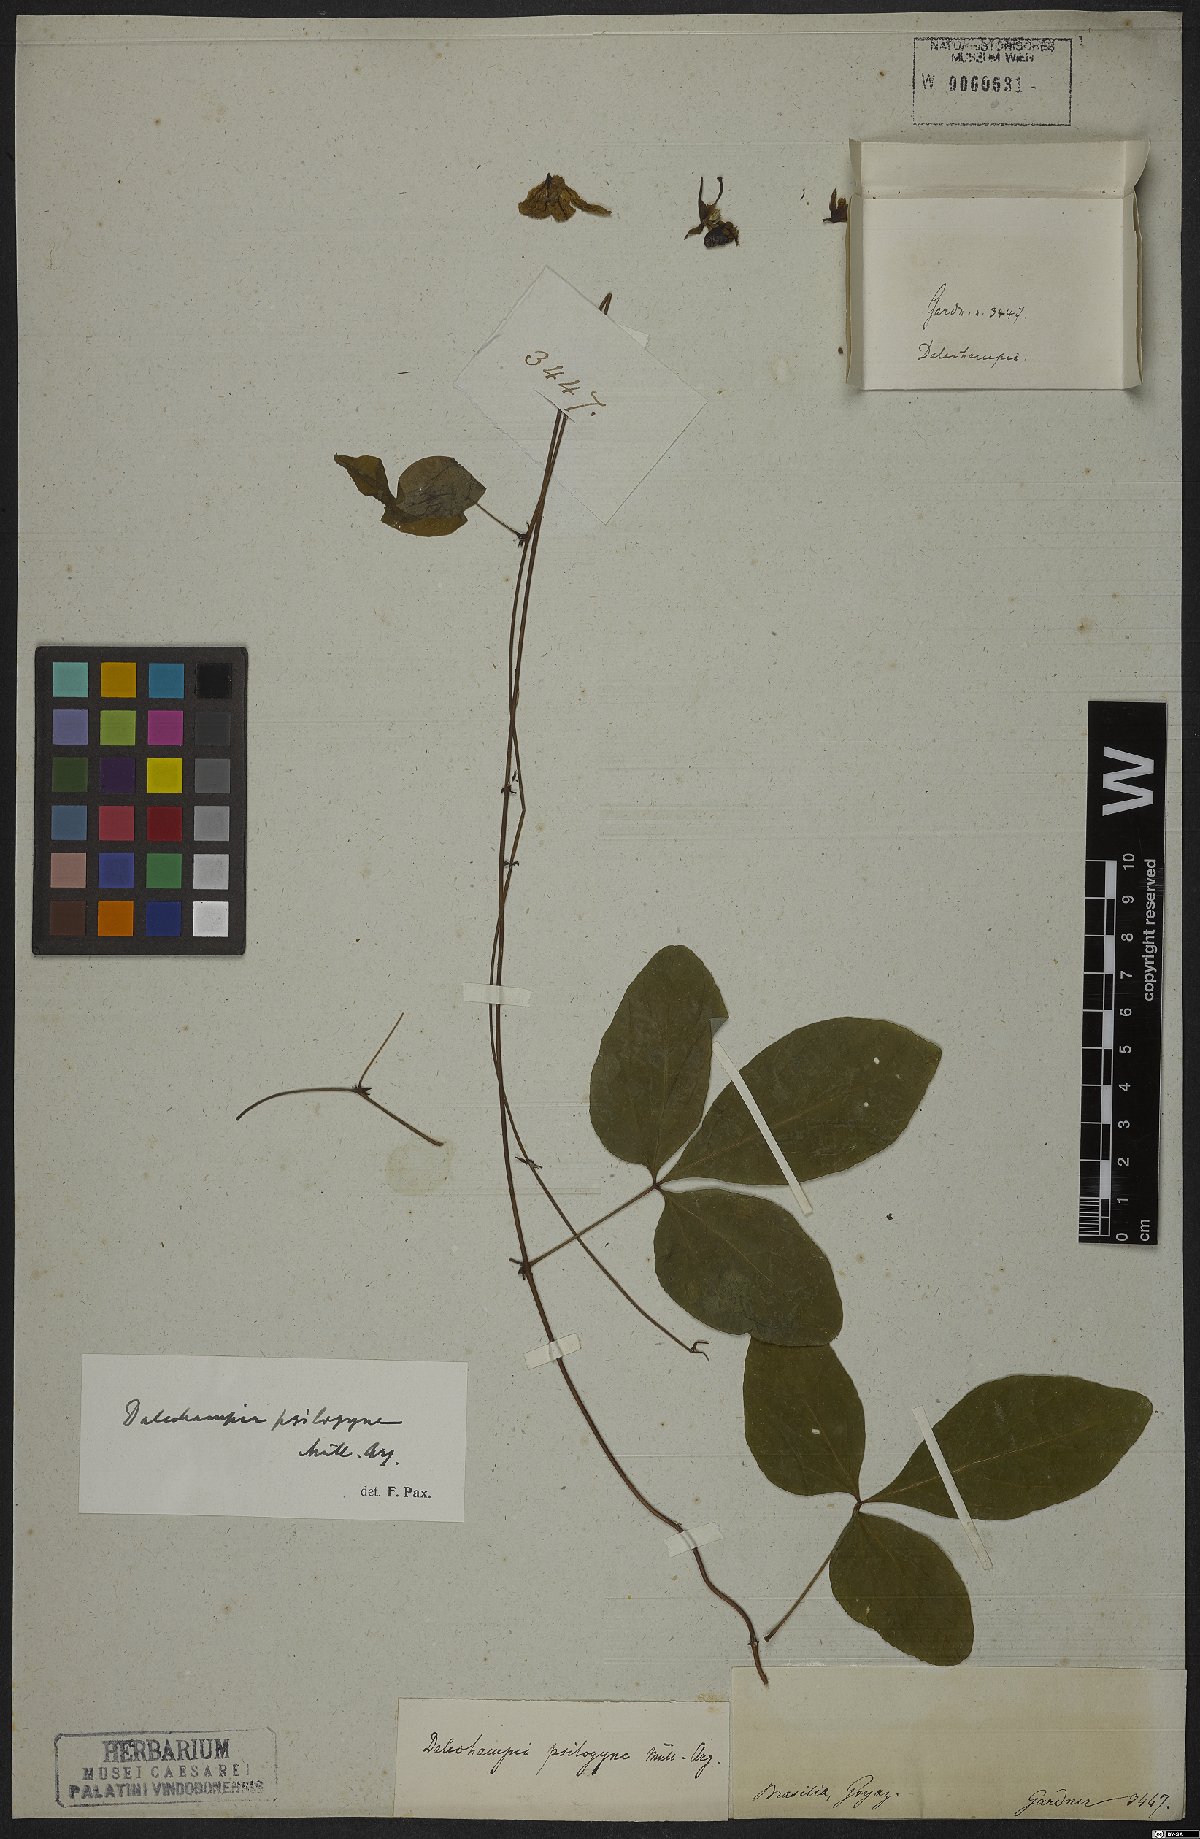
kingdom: Plantae
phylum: Tracheophyta
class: Magnoliopsida
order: Malpighiales
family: Euphorbiaceae
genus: Dalechampia
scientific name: Dalechampia psilogyne
